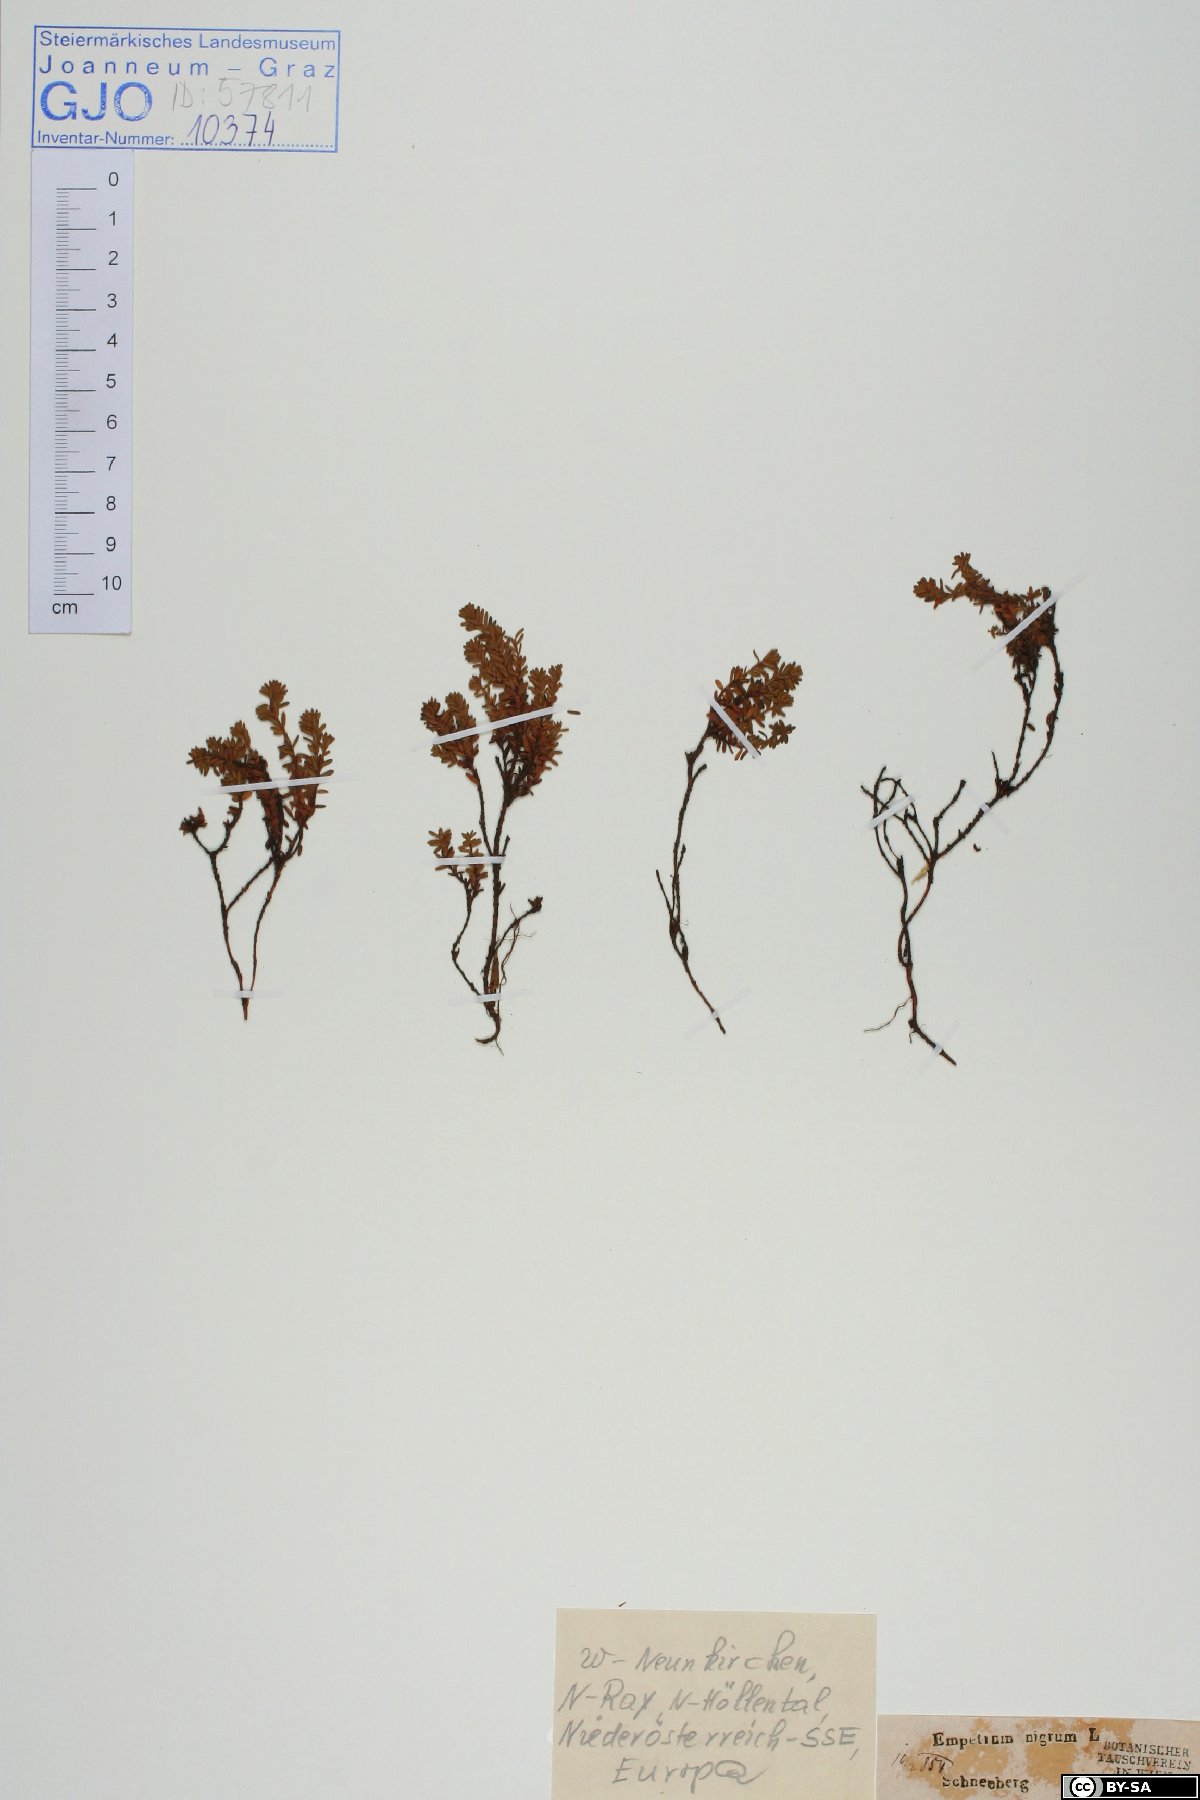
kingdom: Plantae
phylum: Tracheophyta
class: Magnoliopsida
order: Ericales
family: Ericaceae
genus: Empetrum
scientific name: Empetrum nigrum
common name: Black crowberry
